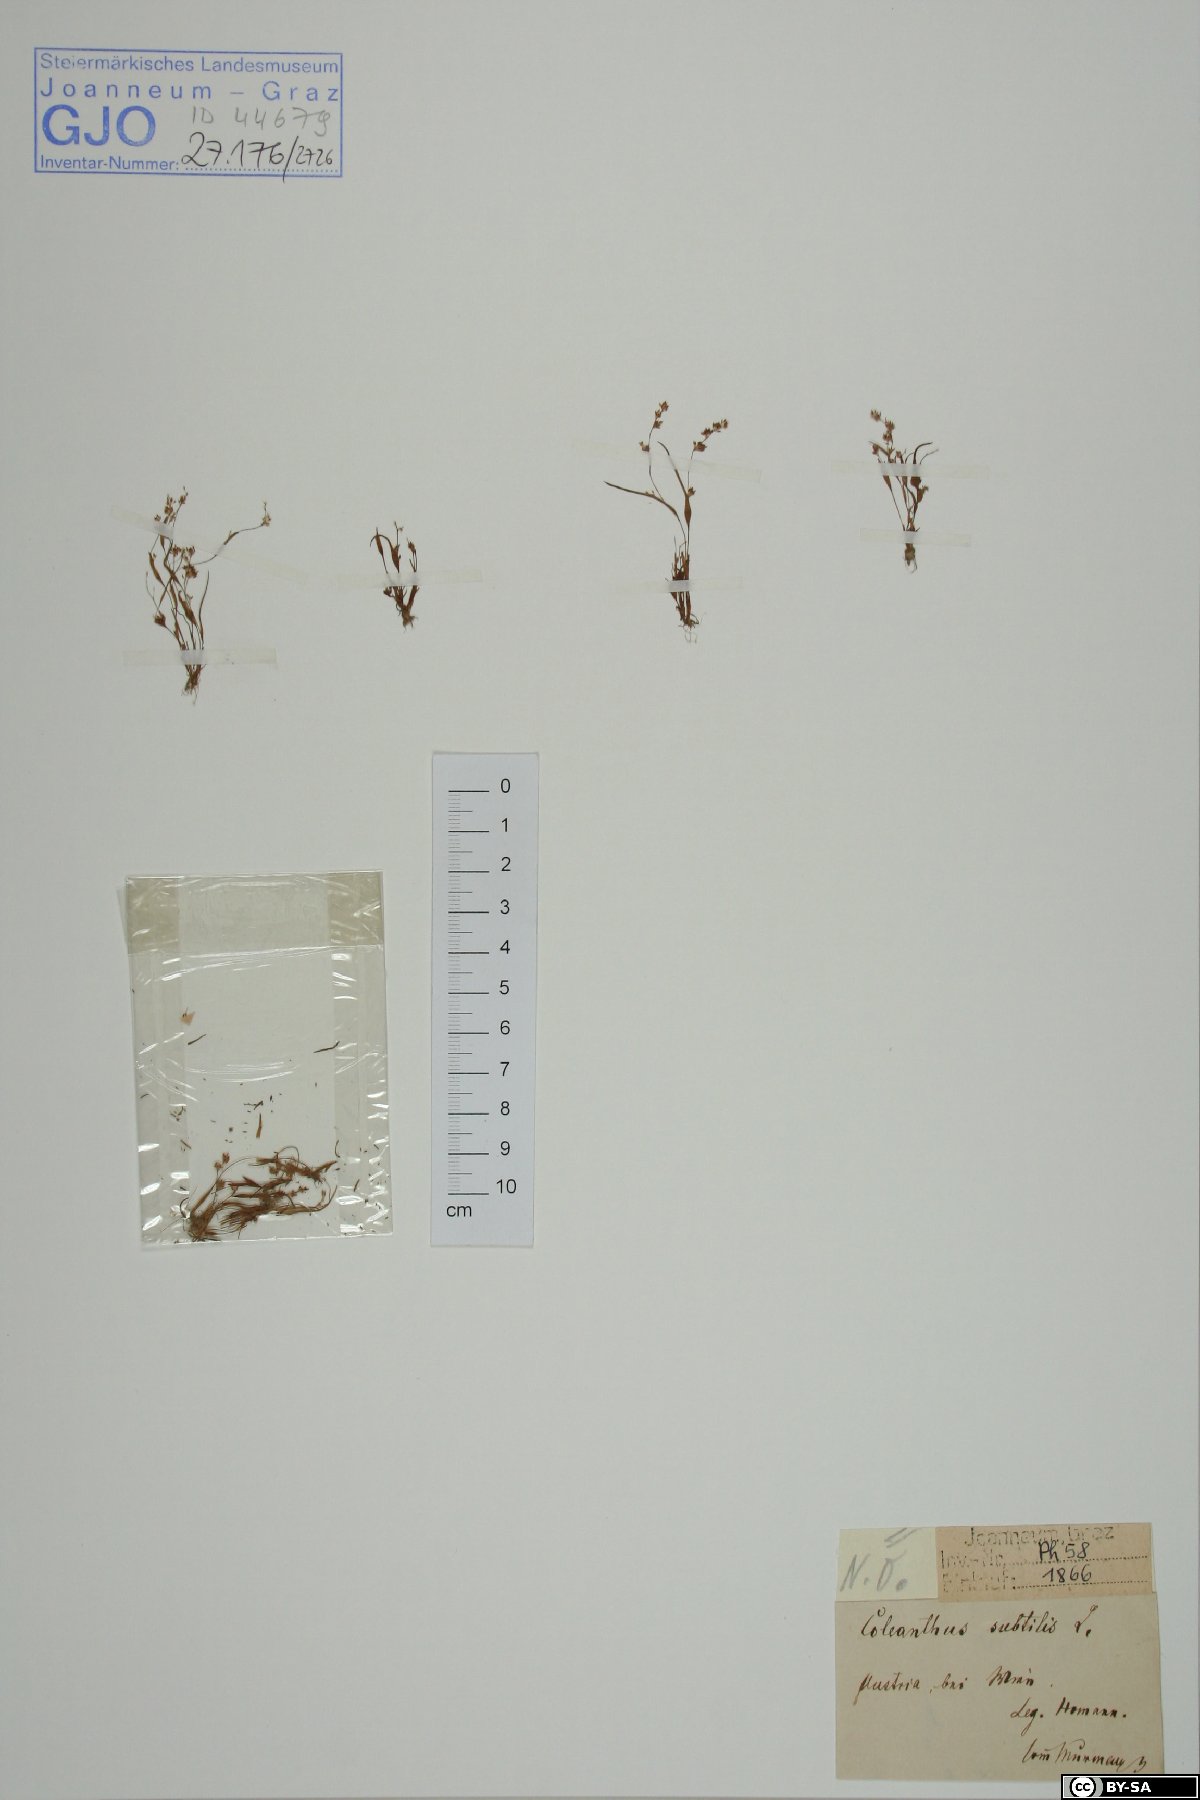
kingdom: Plantae
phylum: Bryophyta
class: Polytrichopsida
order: Polytrichales
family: Polytrichaceae
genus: Polytrichum
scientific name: Polytrichum hyperboreum
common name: Hyperboreal haircap moss
